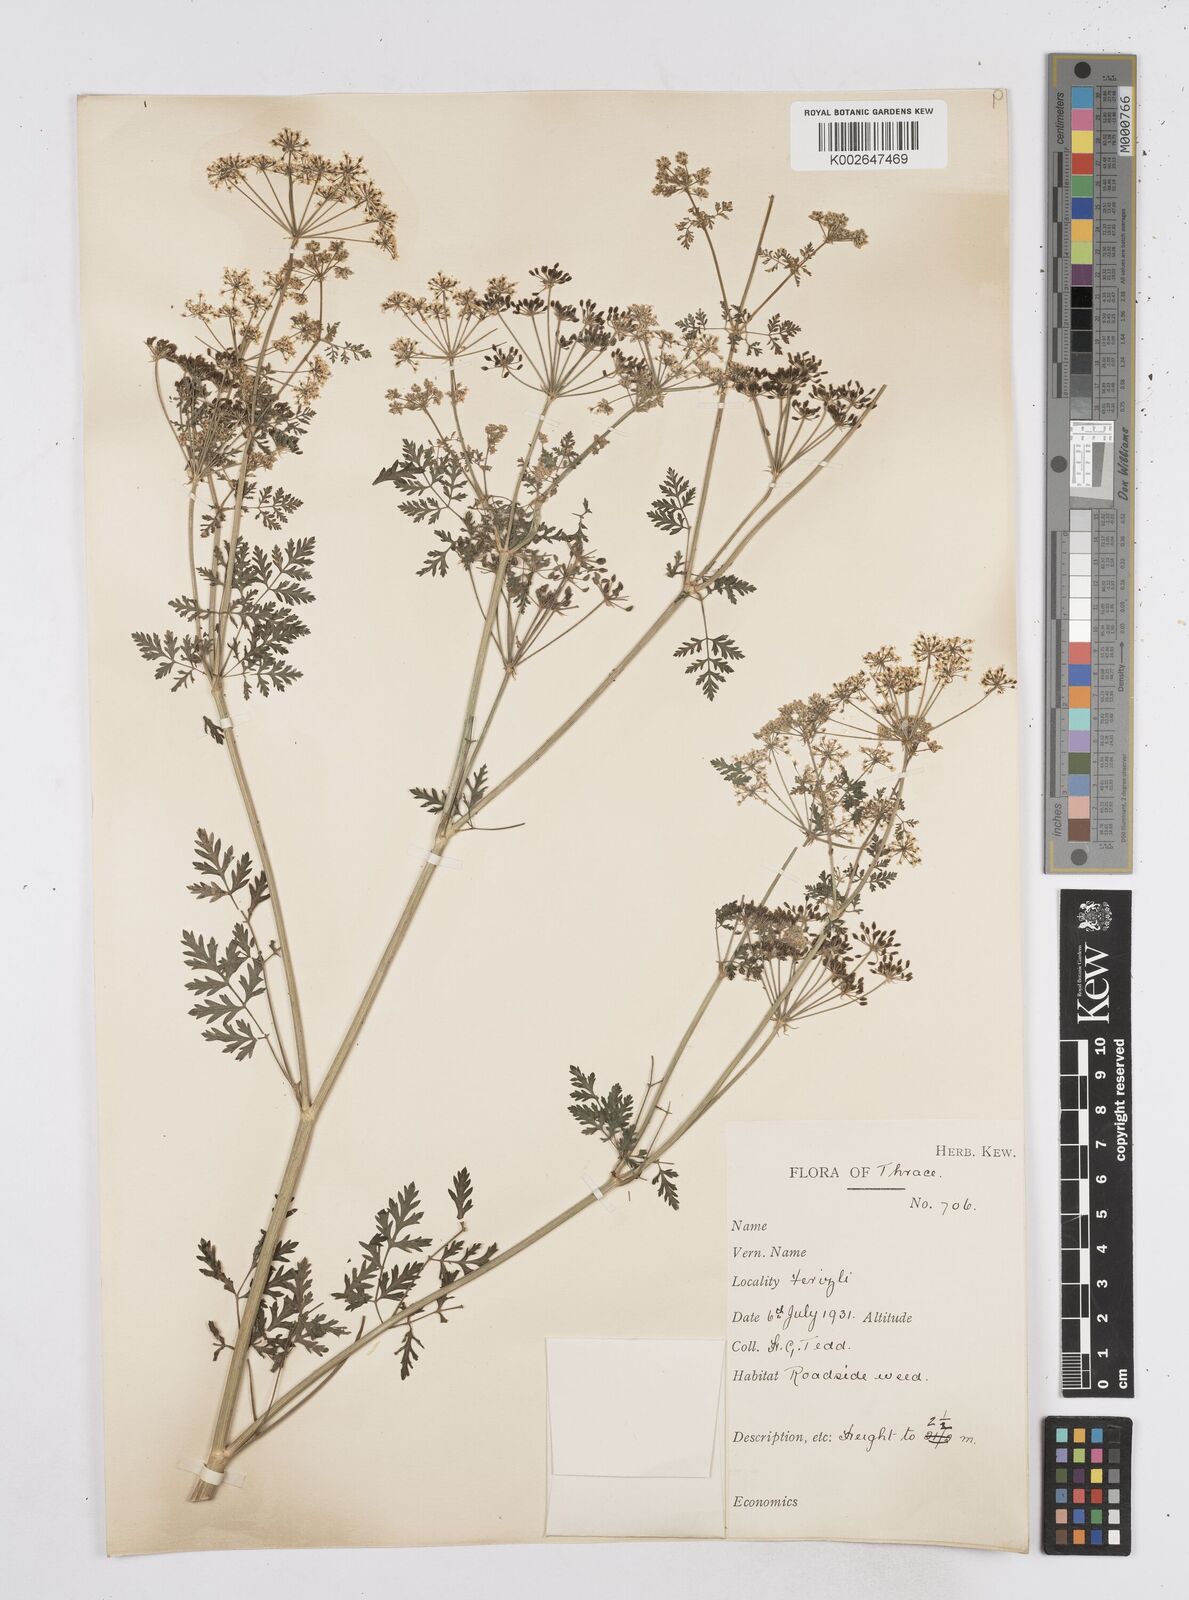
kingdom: Plantae
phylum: Tracheophyta
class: Magnoliopsida
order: Apiales
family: Apiaceae
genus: Conium
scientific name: Conium maculatum
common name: Hemlock
